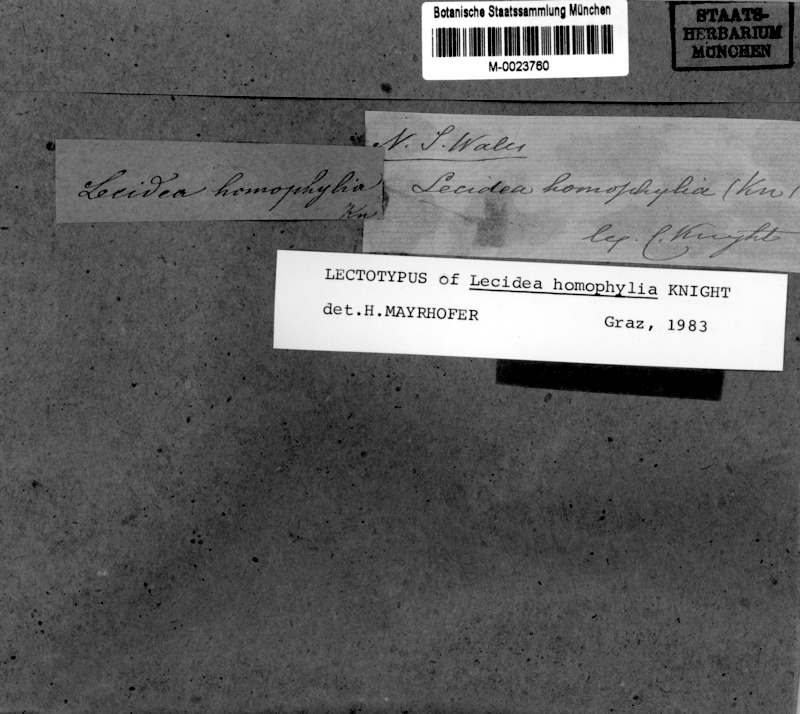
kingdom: Fungi
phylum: Ascomycota
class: Lecanoromycetes
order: Caliciales
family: Caliciaceae
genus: Buellia
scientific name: Buellia homophylia
